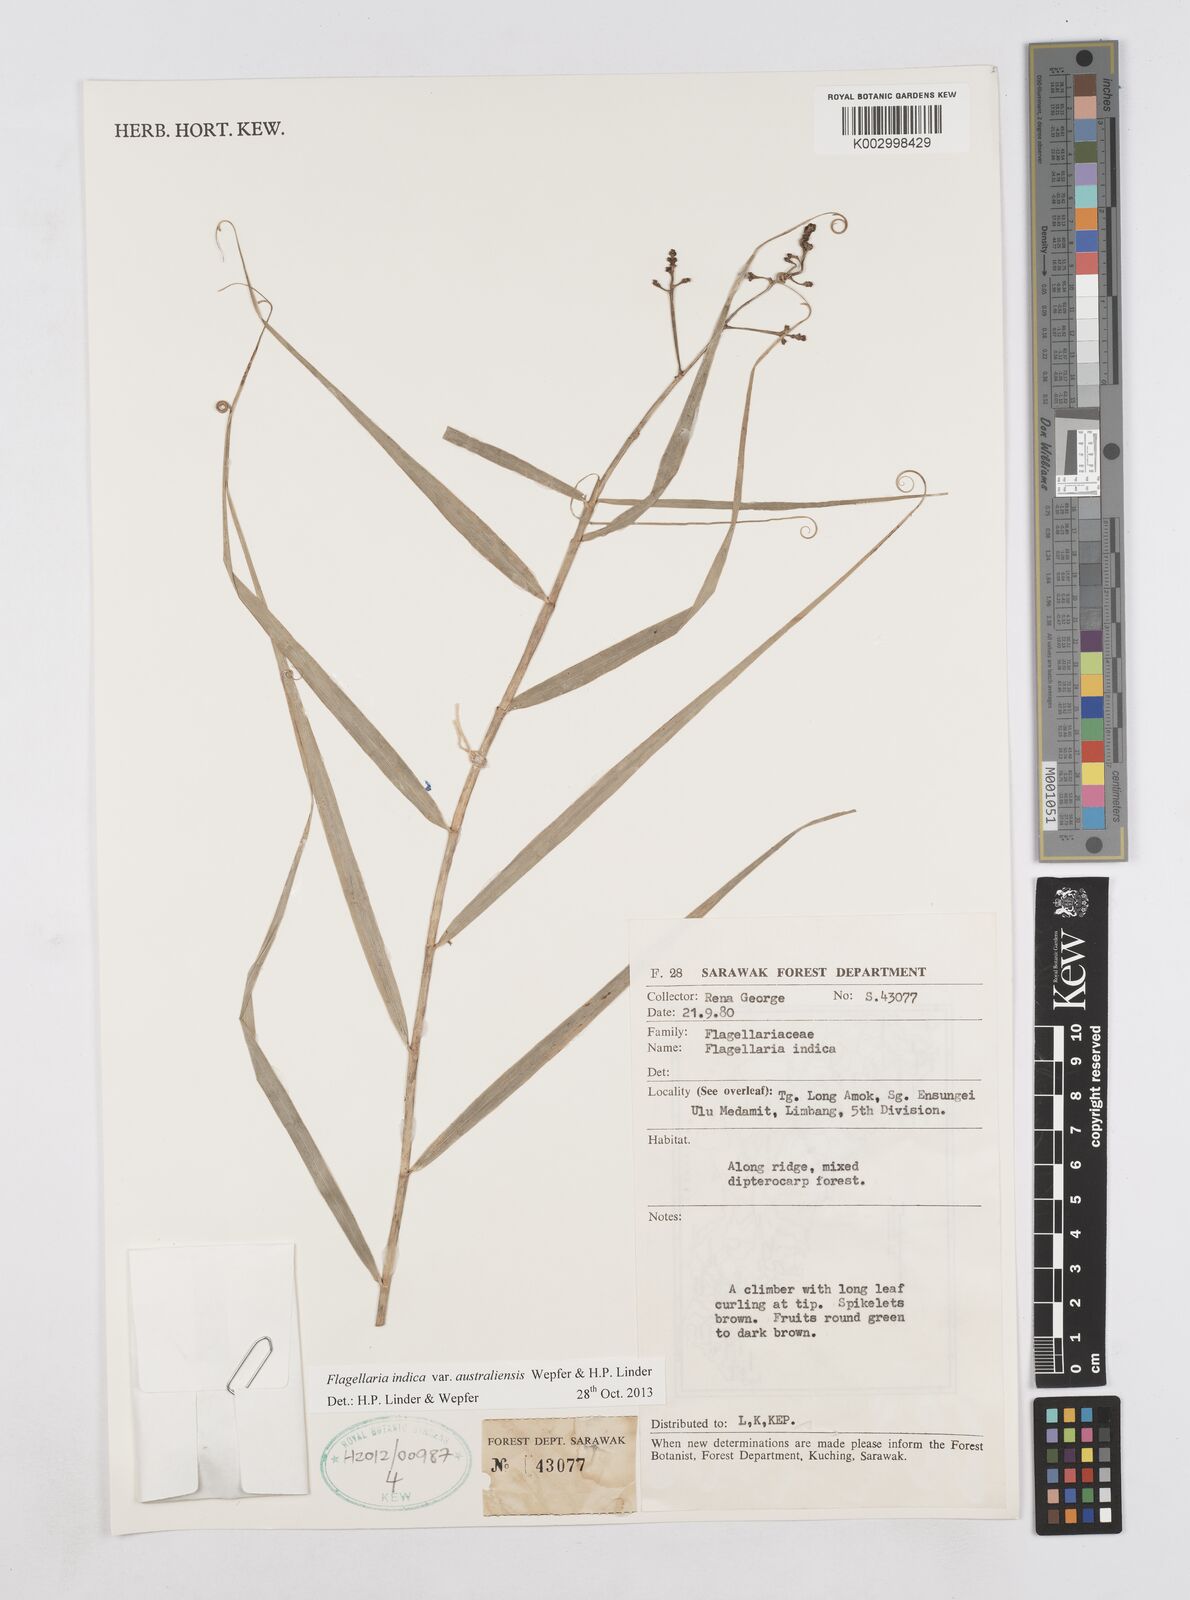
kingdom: Plantae
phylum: Tracheophyta
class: Liliopsida
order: Poales
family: Flagellariaceae
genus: Flagellaria
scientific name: Flagellaria indica
